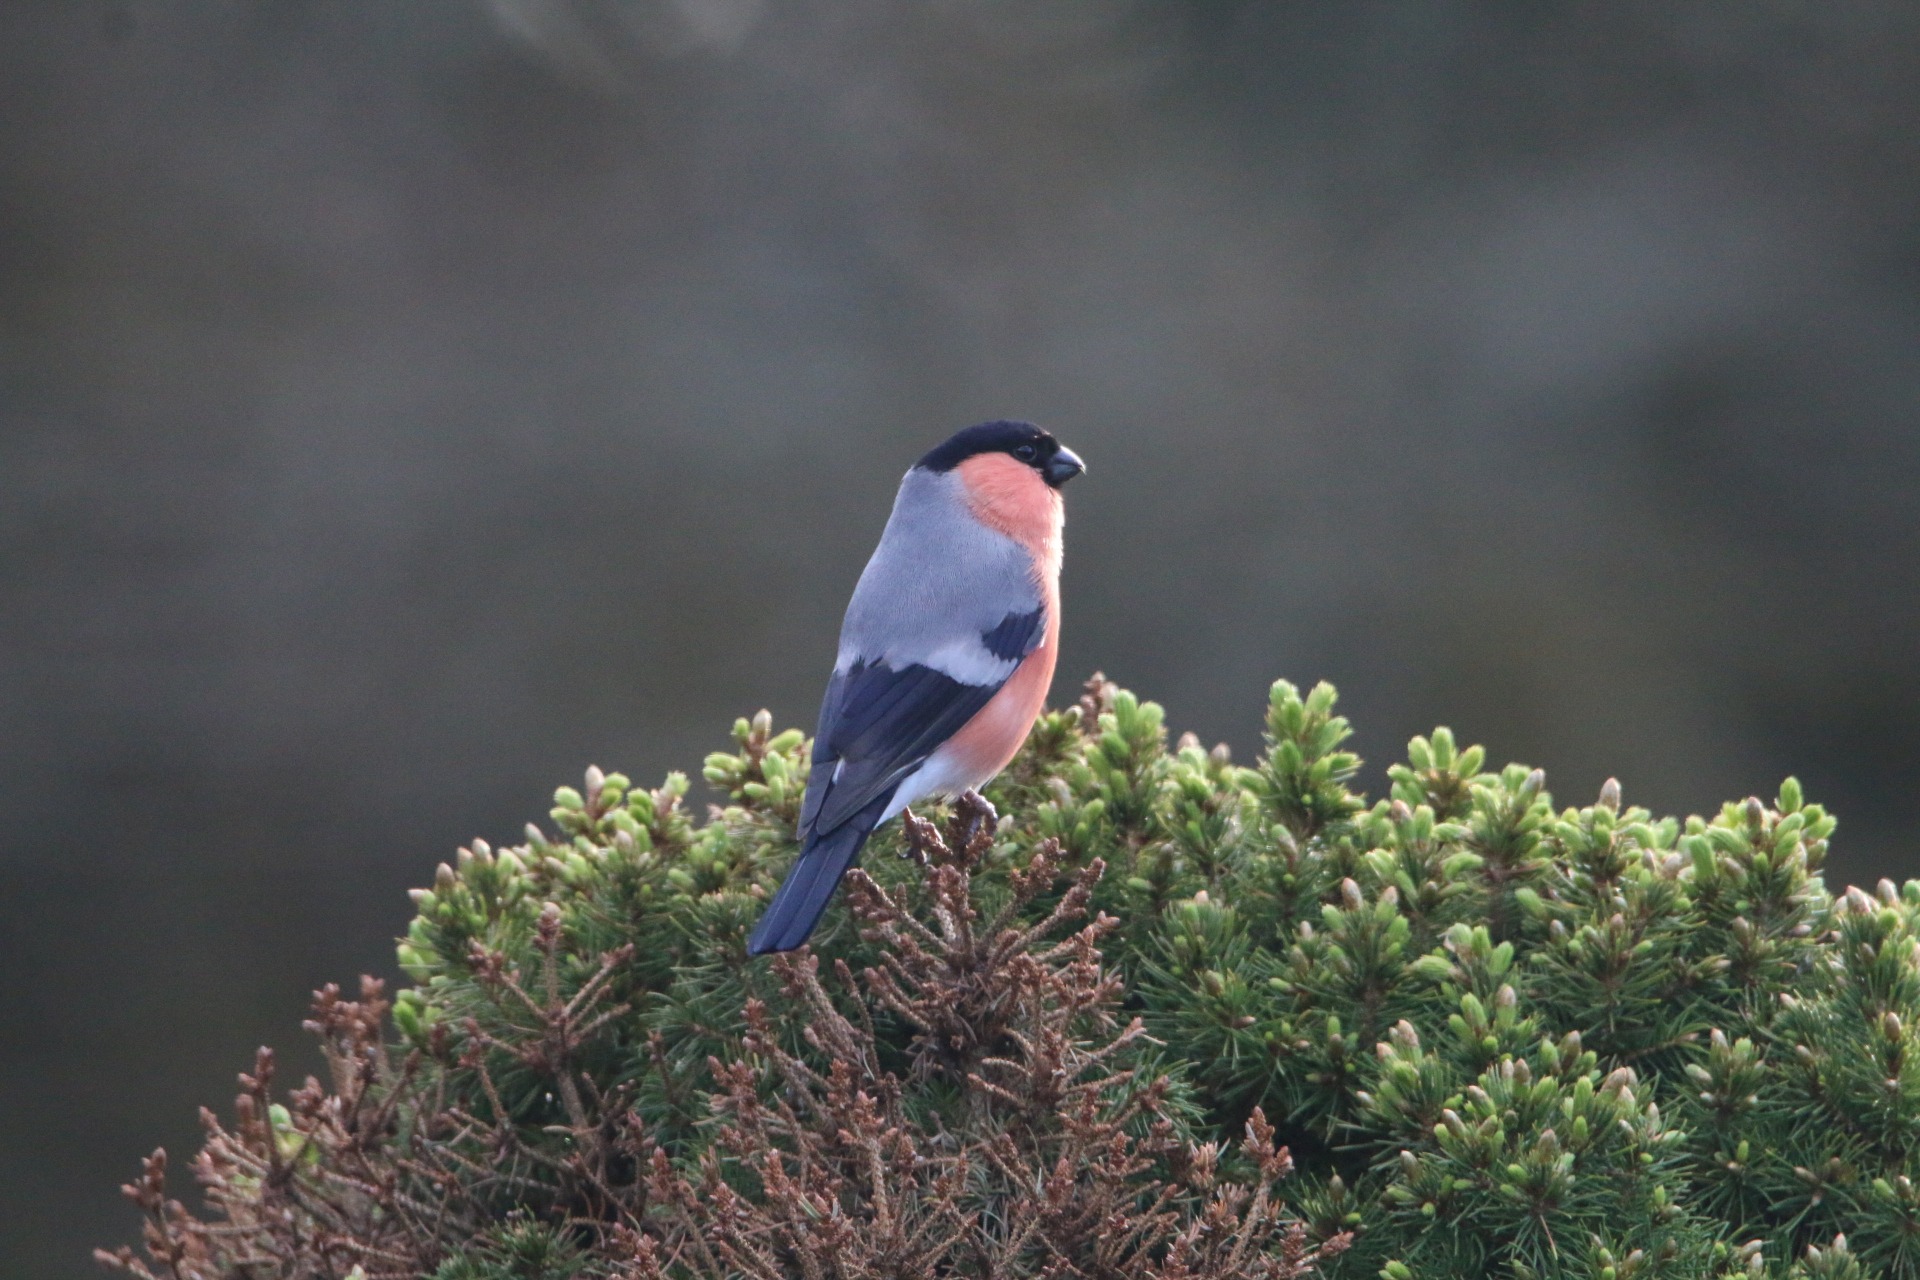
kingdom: Animalia
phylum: Chordata
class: Aves
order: Passeriformes
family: Fringillidae
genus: Pyrrhula
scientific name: Pyrrhula pyrrhula
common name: Dompap
